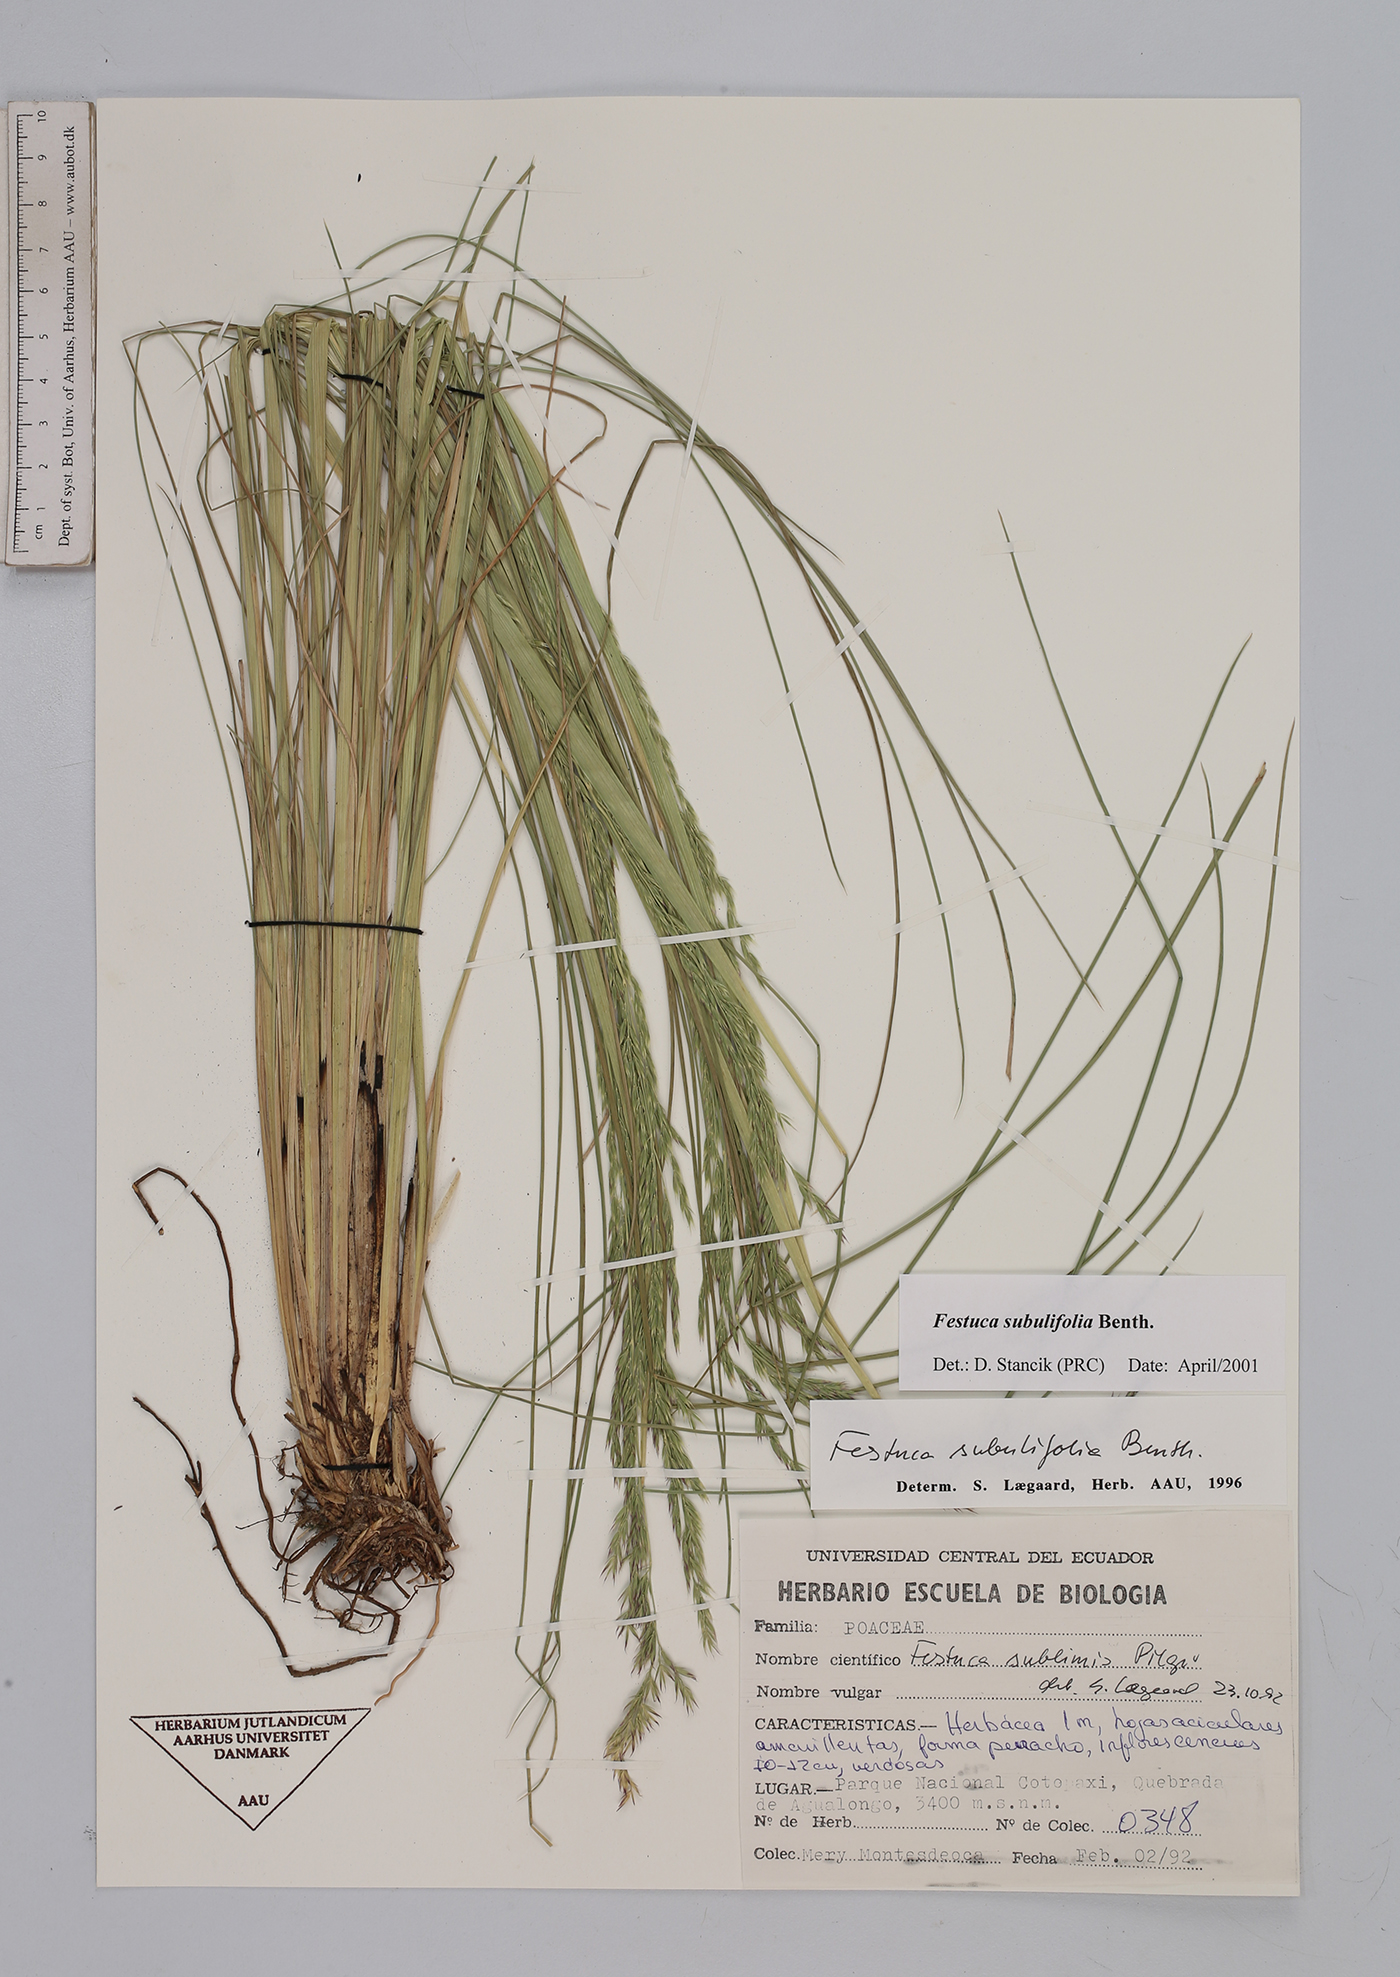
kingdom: Plantae
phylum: Tracheophyta
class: Liliopsida
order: Poales
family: Poaceae
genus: Festuca
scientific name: Festuca subulifolia
